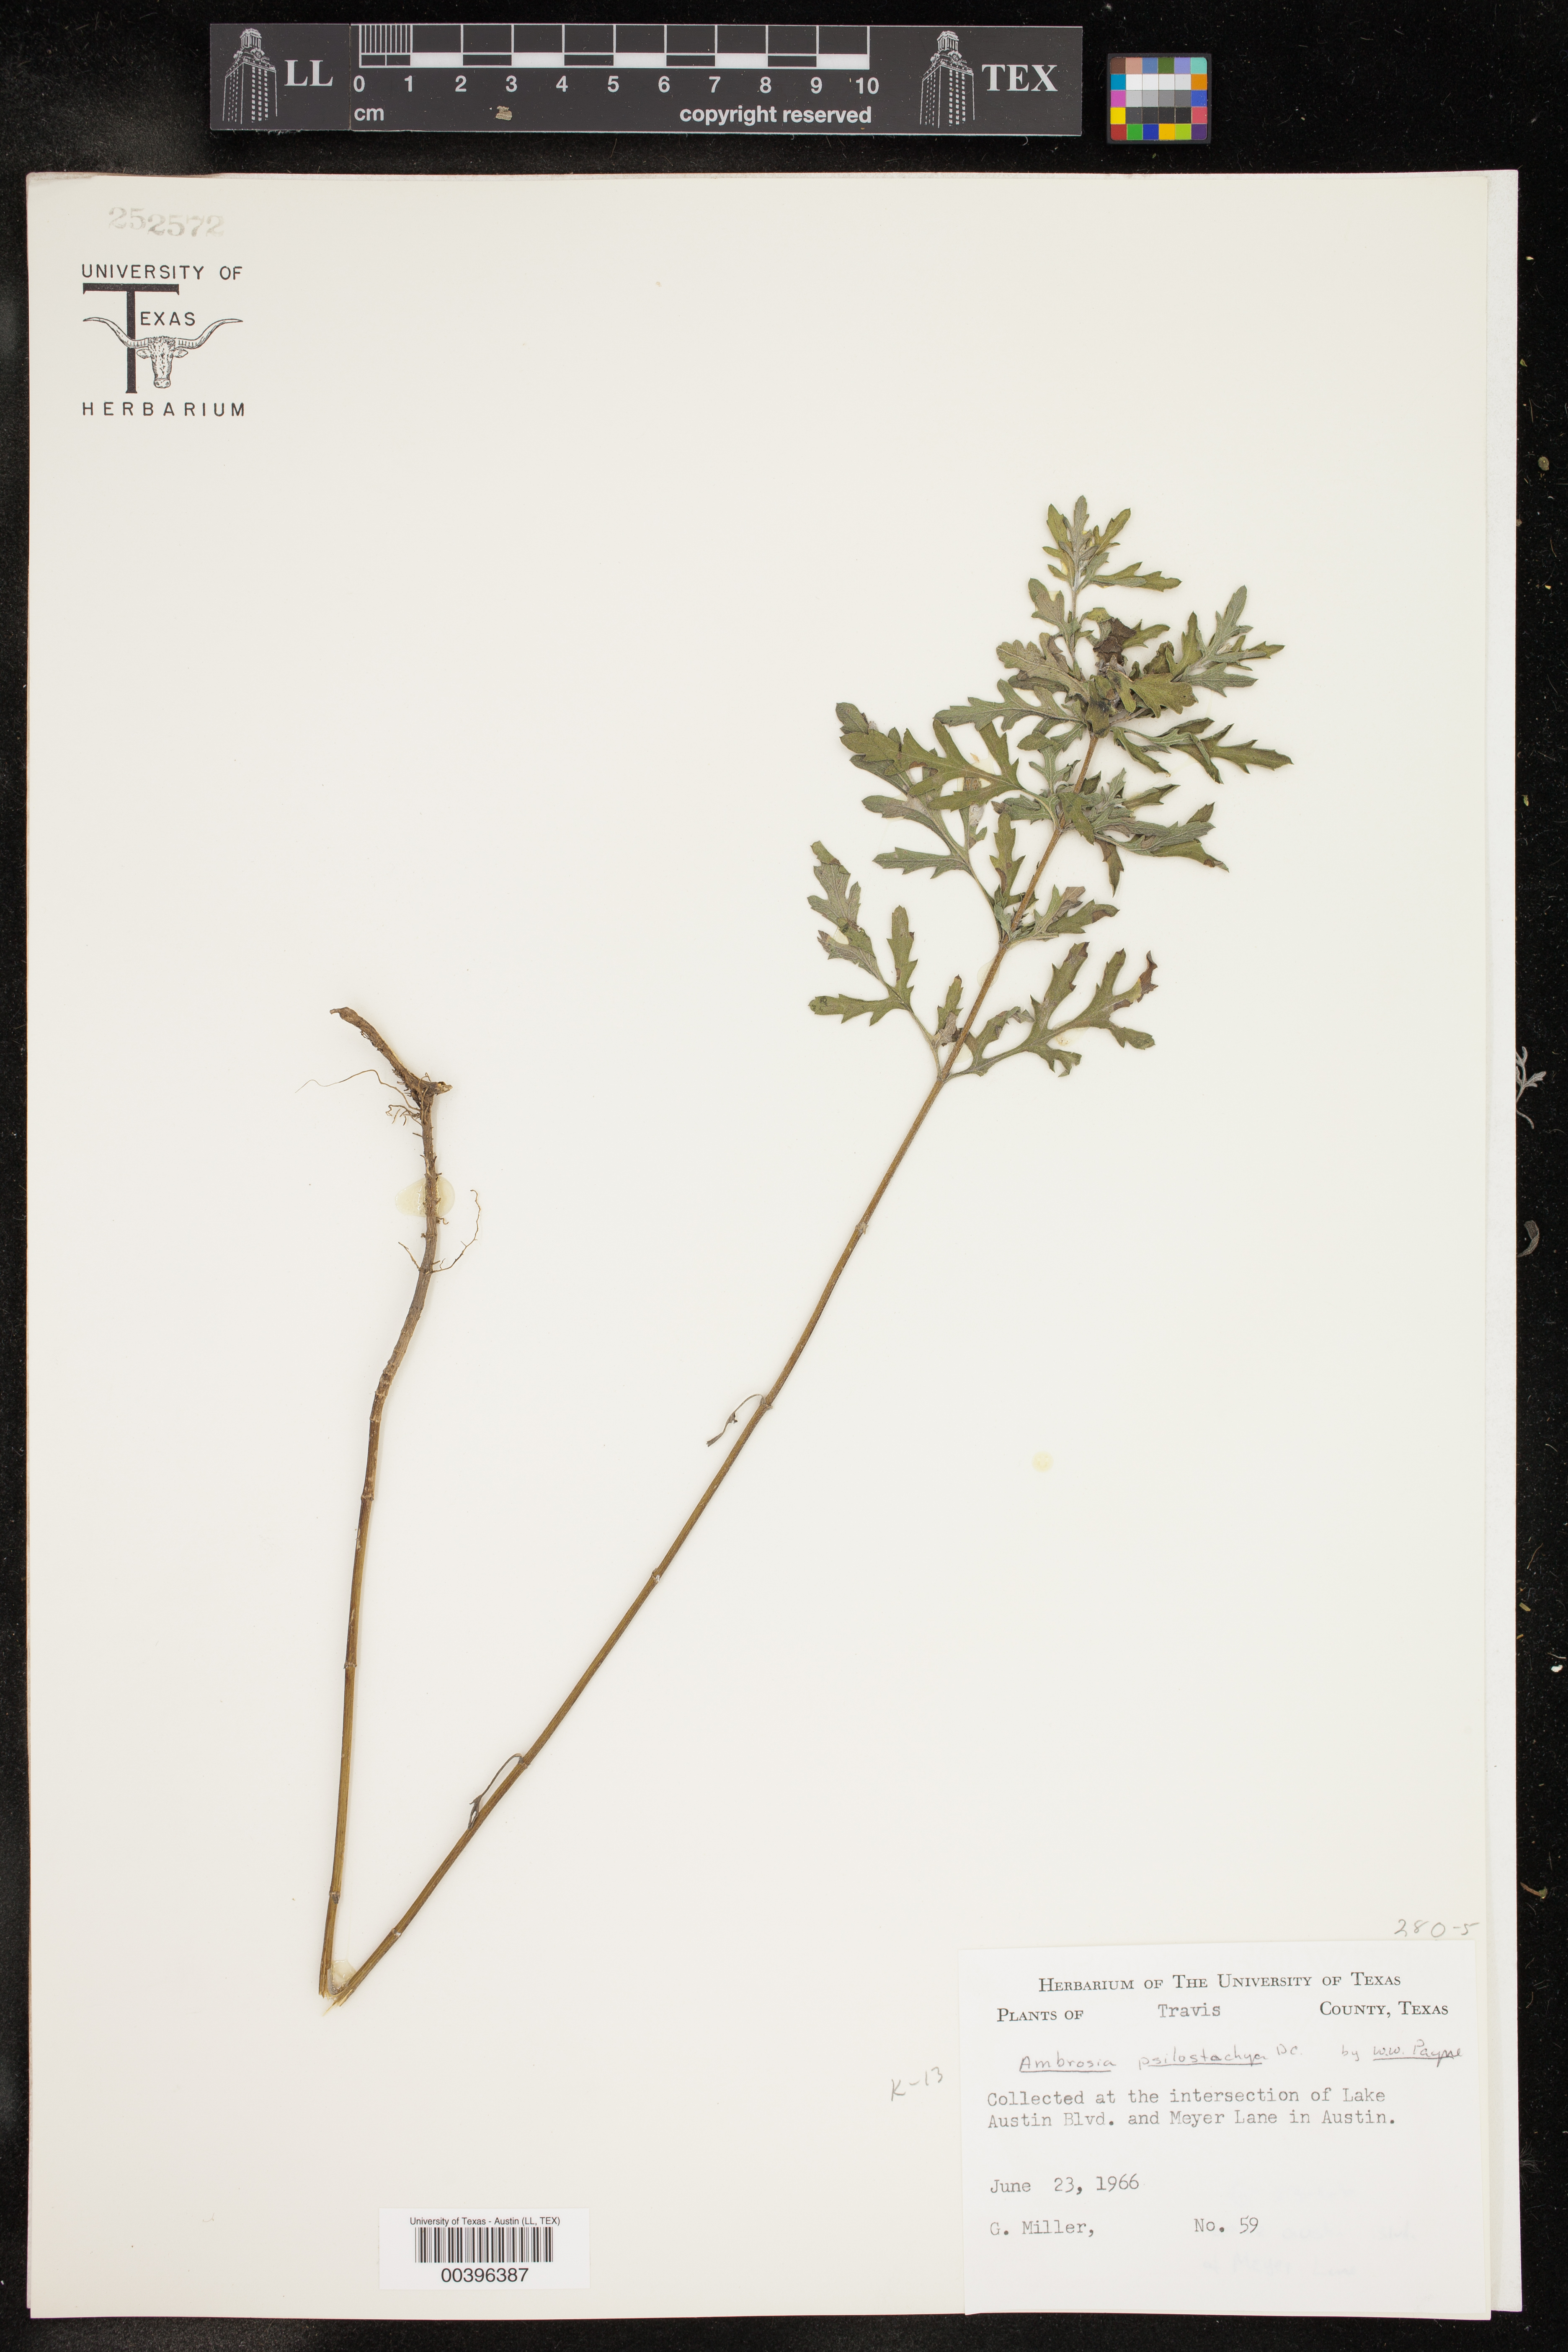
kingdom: Plantae
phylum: Tracheophyta
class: Magnoliopsida
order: Asterales
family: Asteraceae
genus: Ambrosia
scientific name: Ambrosia psilostachya
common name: Perennial ragweed
